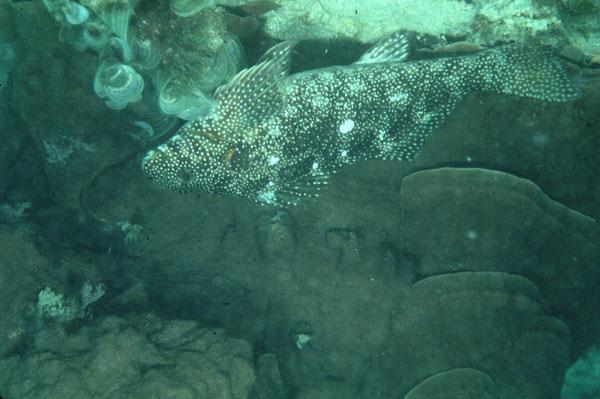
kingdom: Animalia
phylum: Chordata
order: Perciformes
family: Aplodactylidae
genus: Aplodactylus
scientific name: Aplodactylus etheridgii
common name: Notchheaded marblefish
